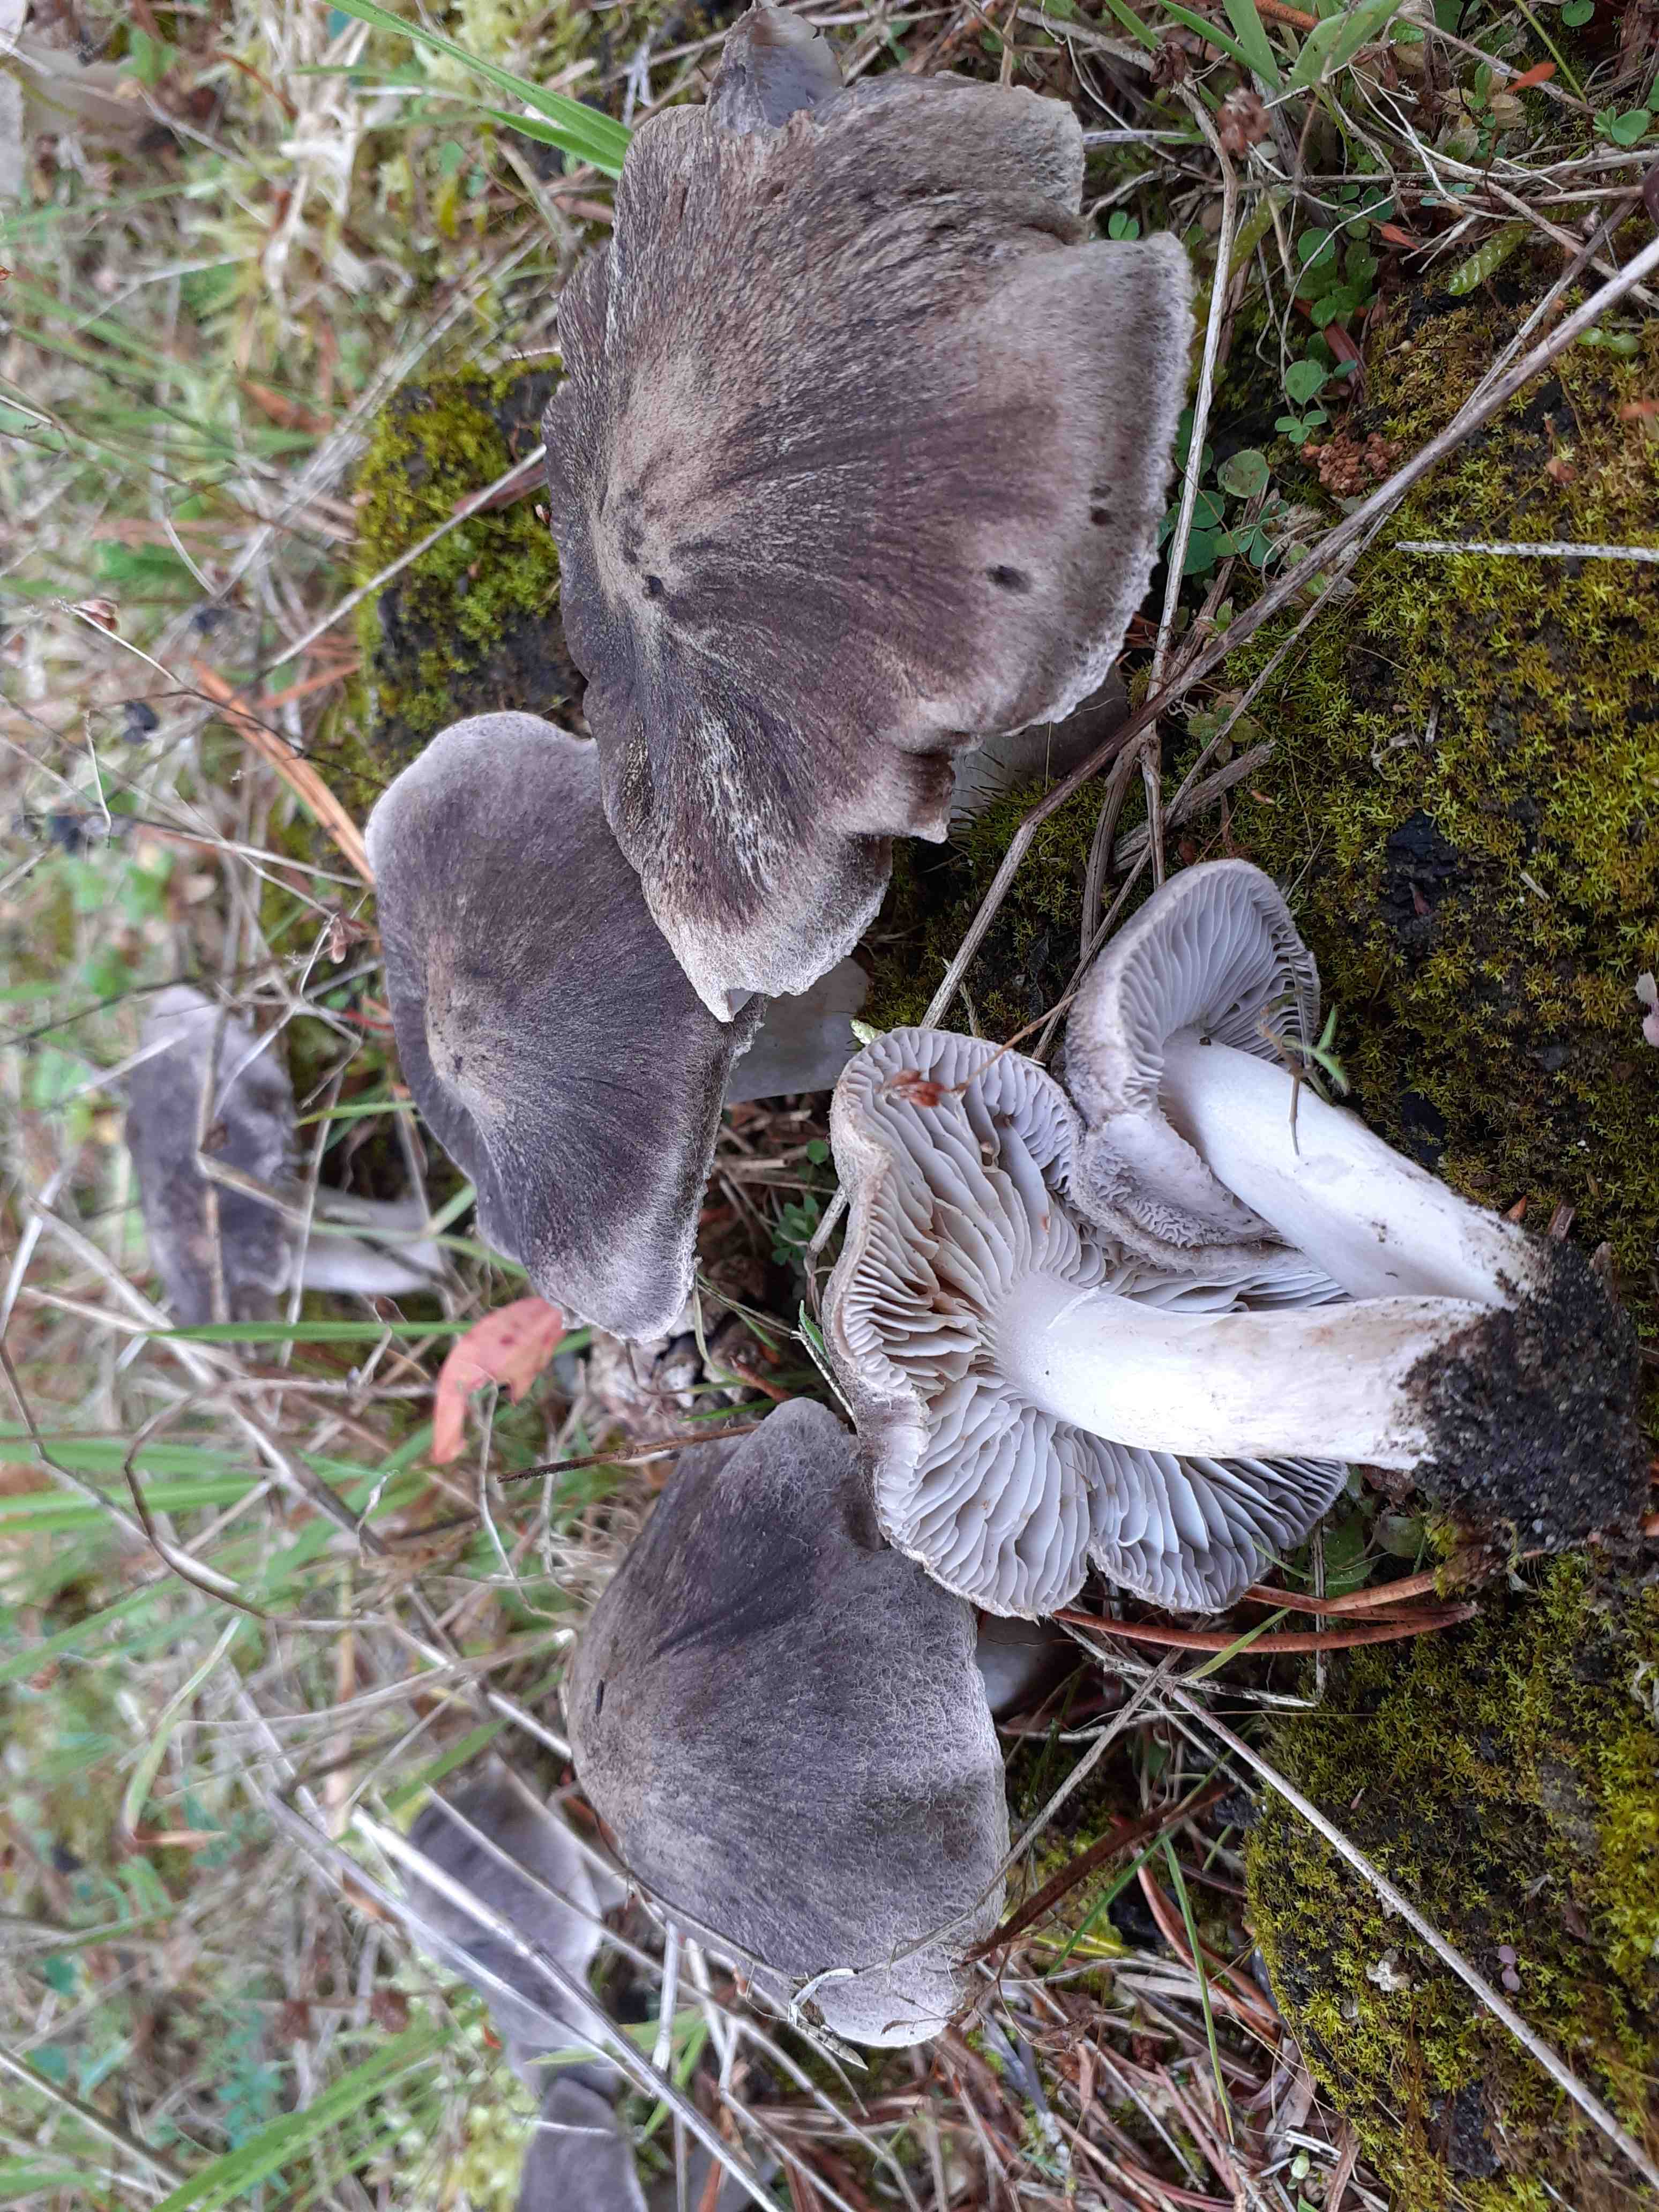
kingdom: Fungi
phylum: Basidiomycota
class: Agaricomycetes
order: Agaricales
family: Tricholomataceae
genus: Tricholoma
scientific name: Tricholoma terreum
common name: jordfarvet ridderhat
